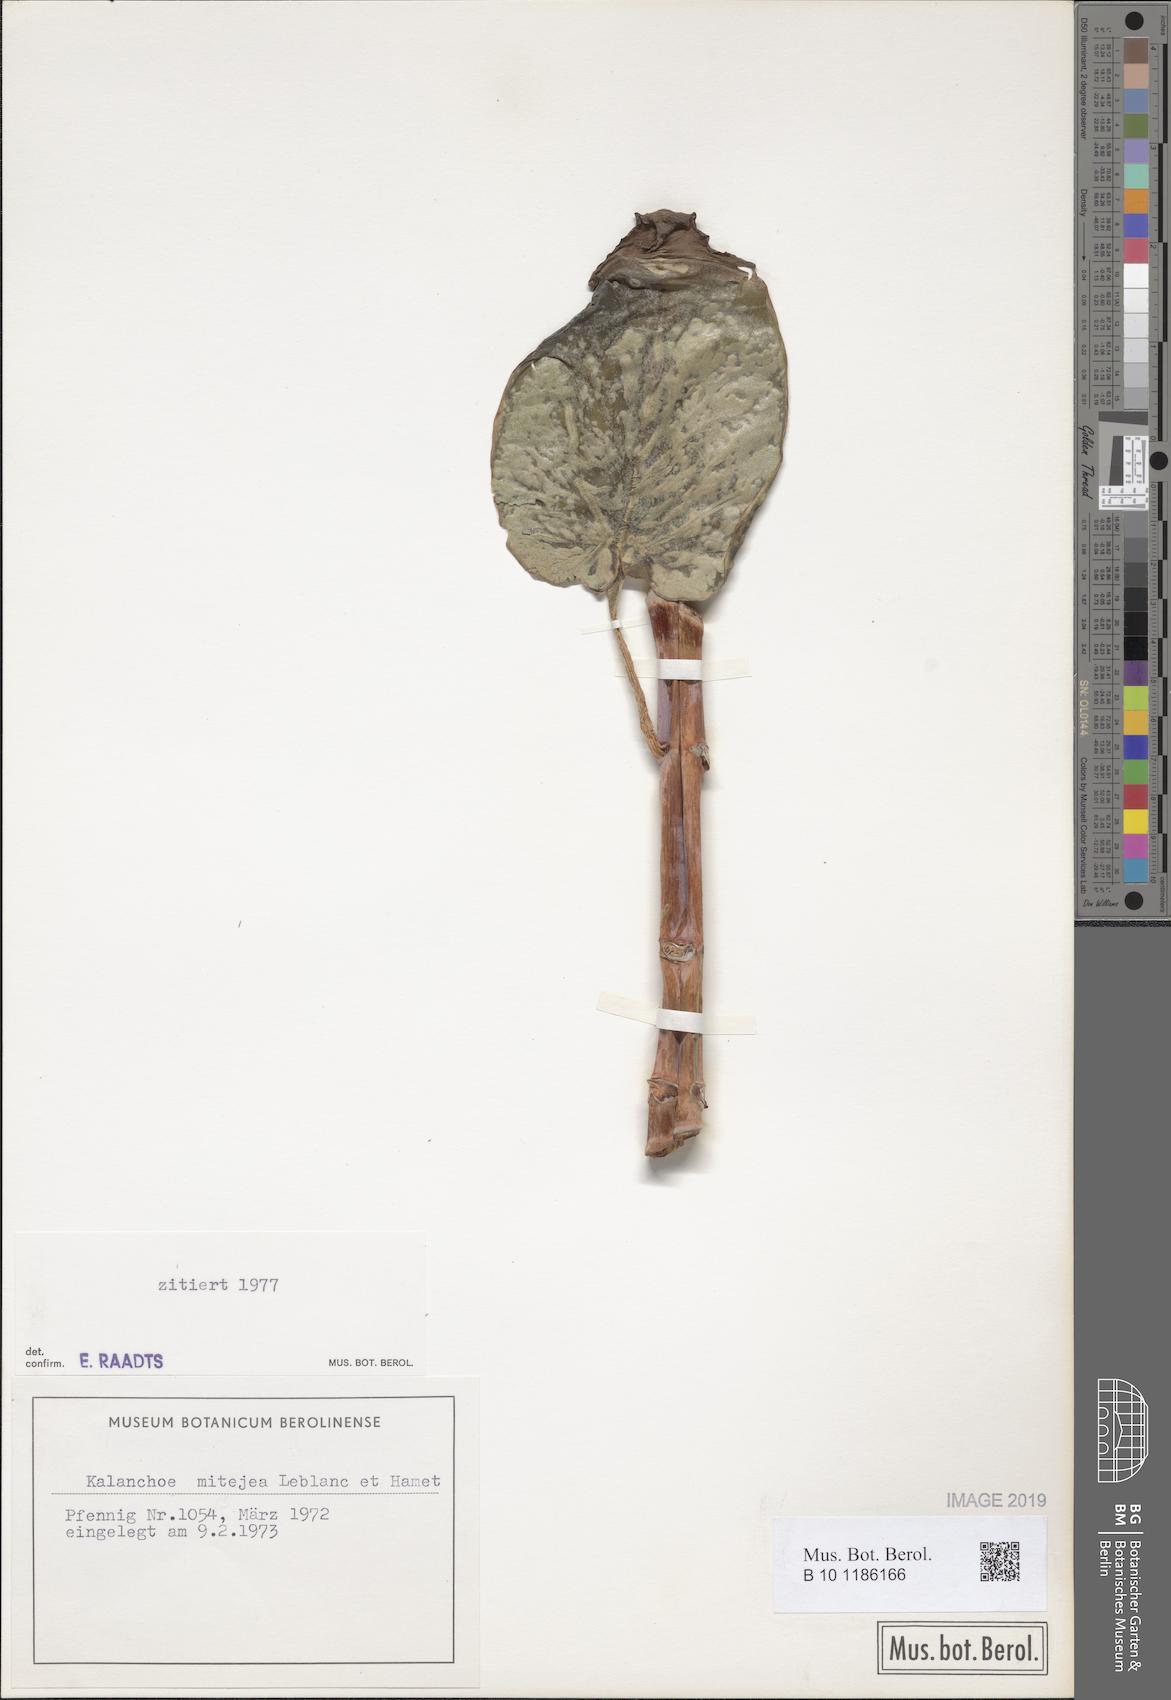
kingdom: Plantae
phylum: Tracheophyta
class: Magnoliopsida
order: Saxifragales
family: Crassulaceae
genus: Kalanchoe
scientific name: Kalanchoe mitejea
